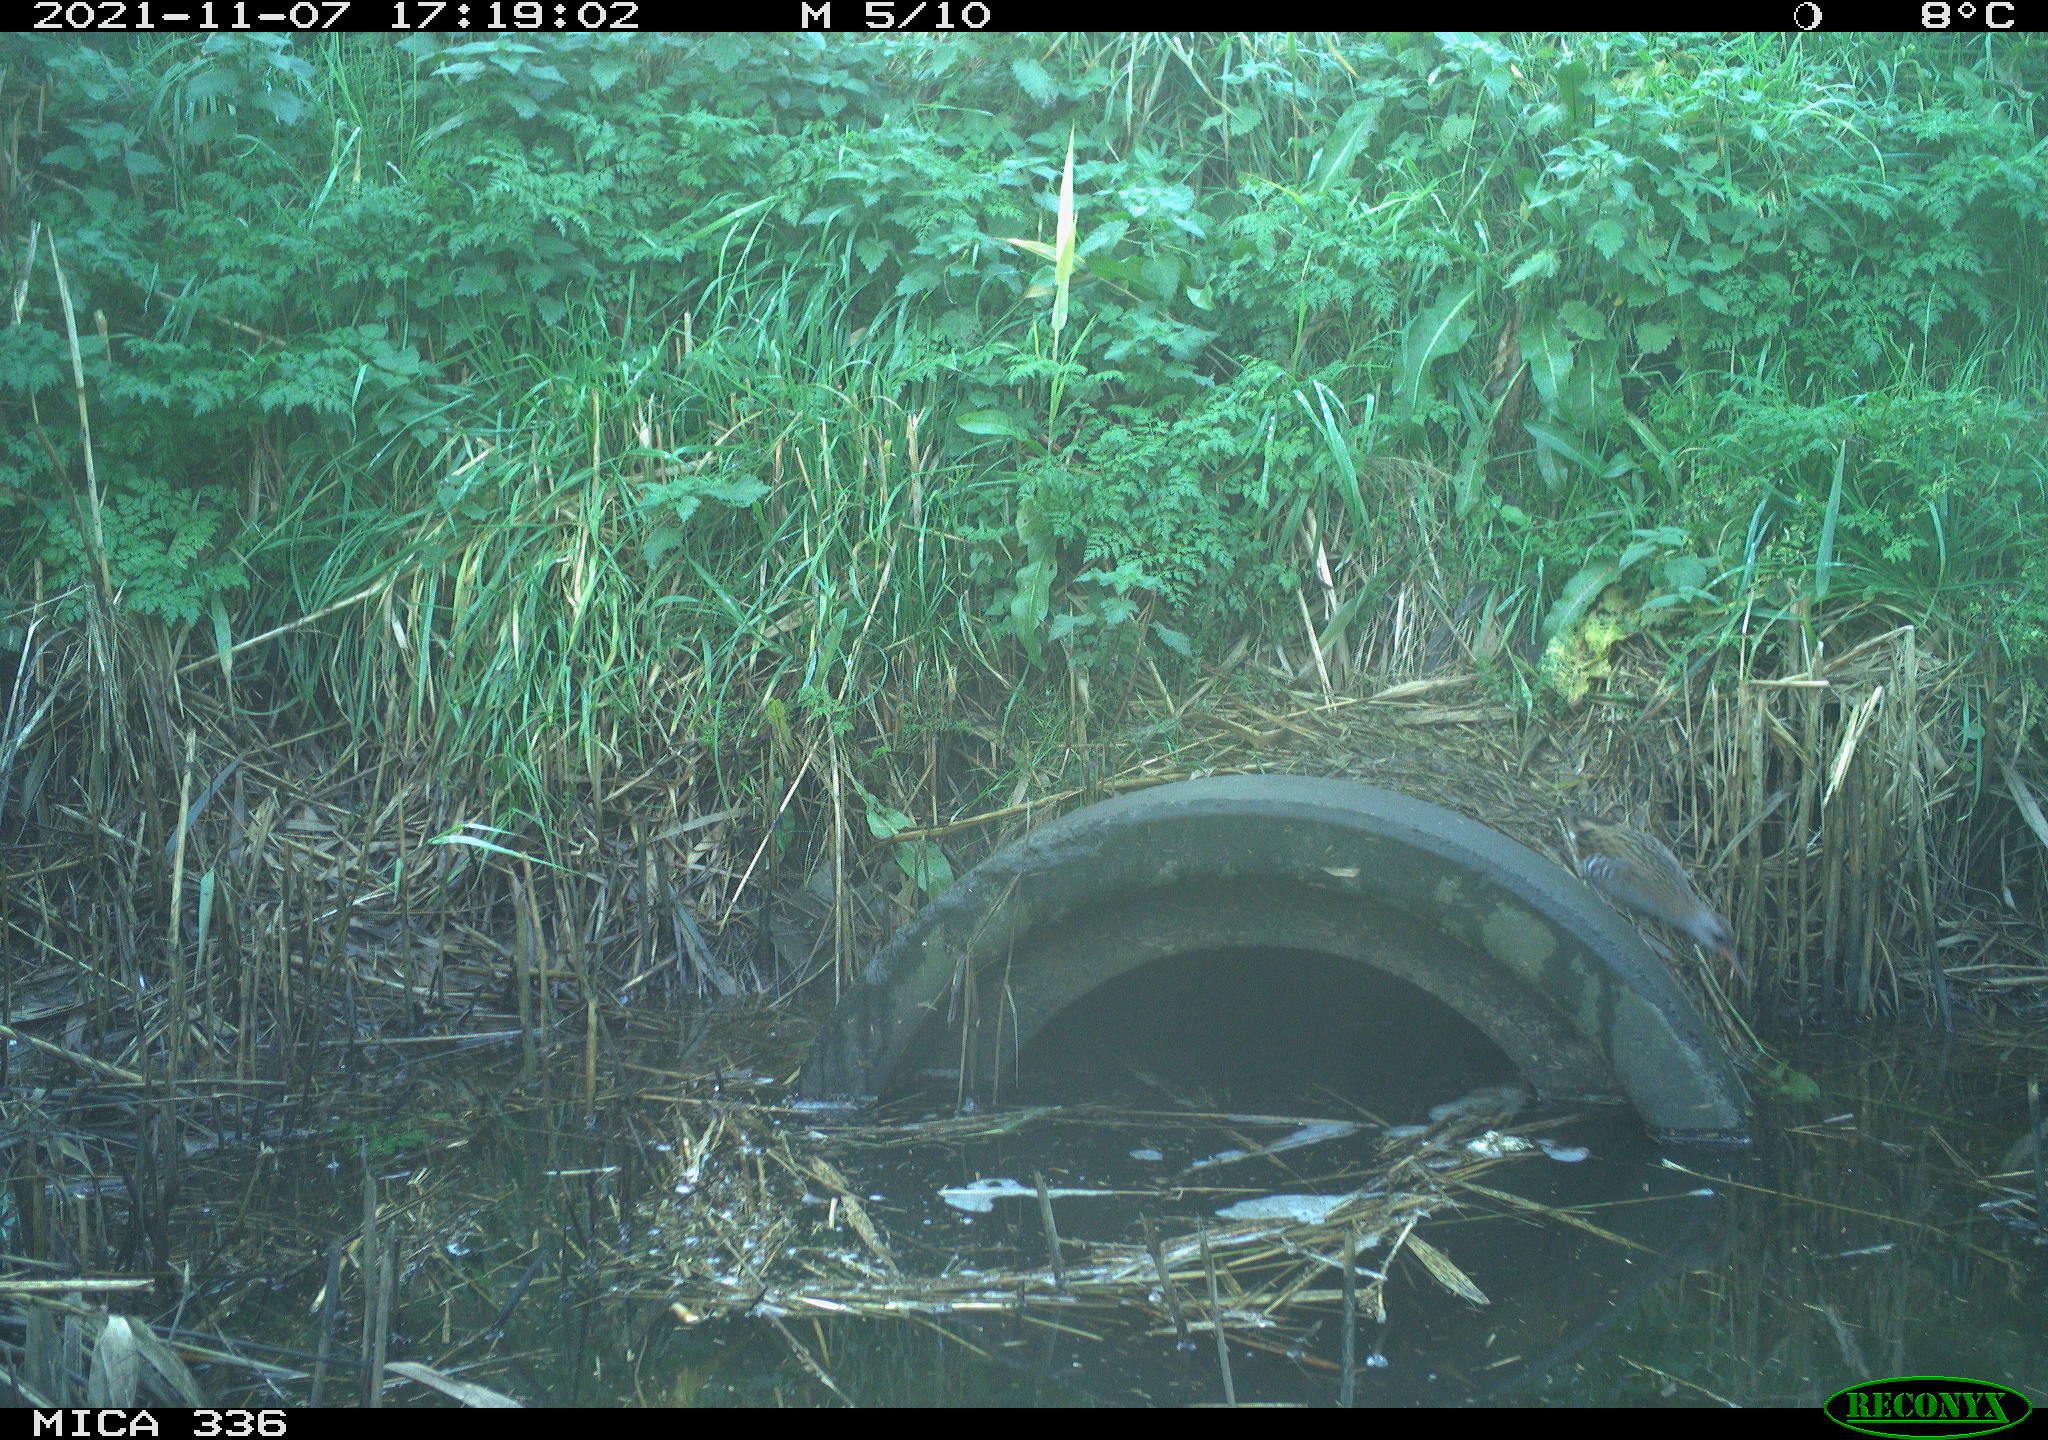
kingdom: Animalia
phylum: Chordata
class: Aves
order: Gruiformes
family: Rallidae
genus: Gallinula
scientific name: Gallinula chloropus
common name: Common moorhen
